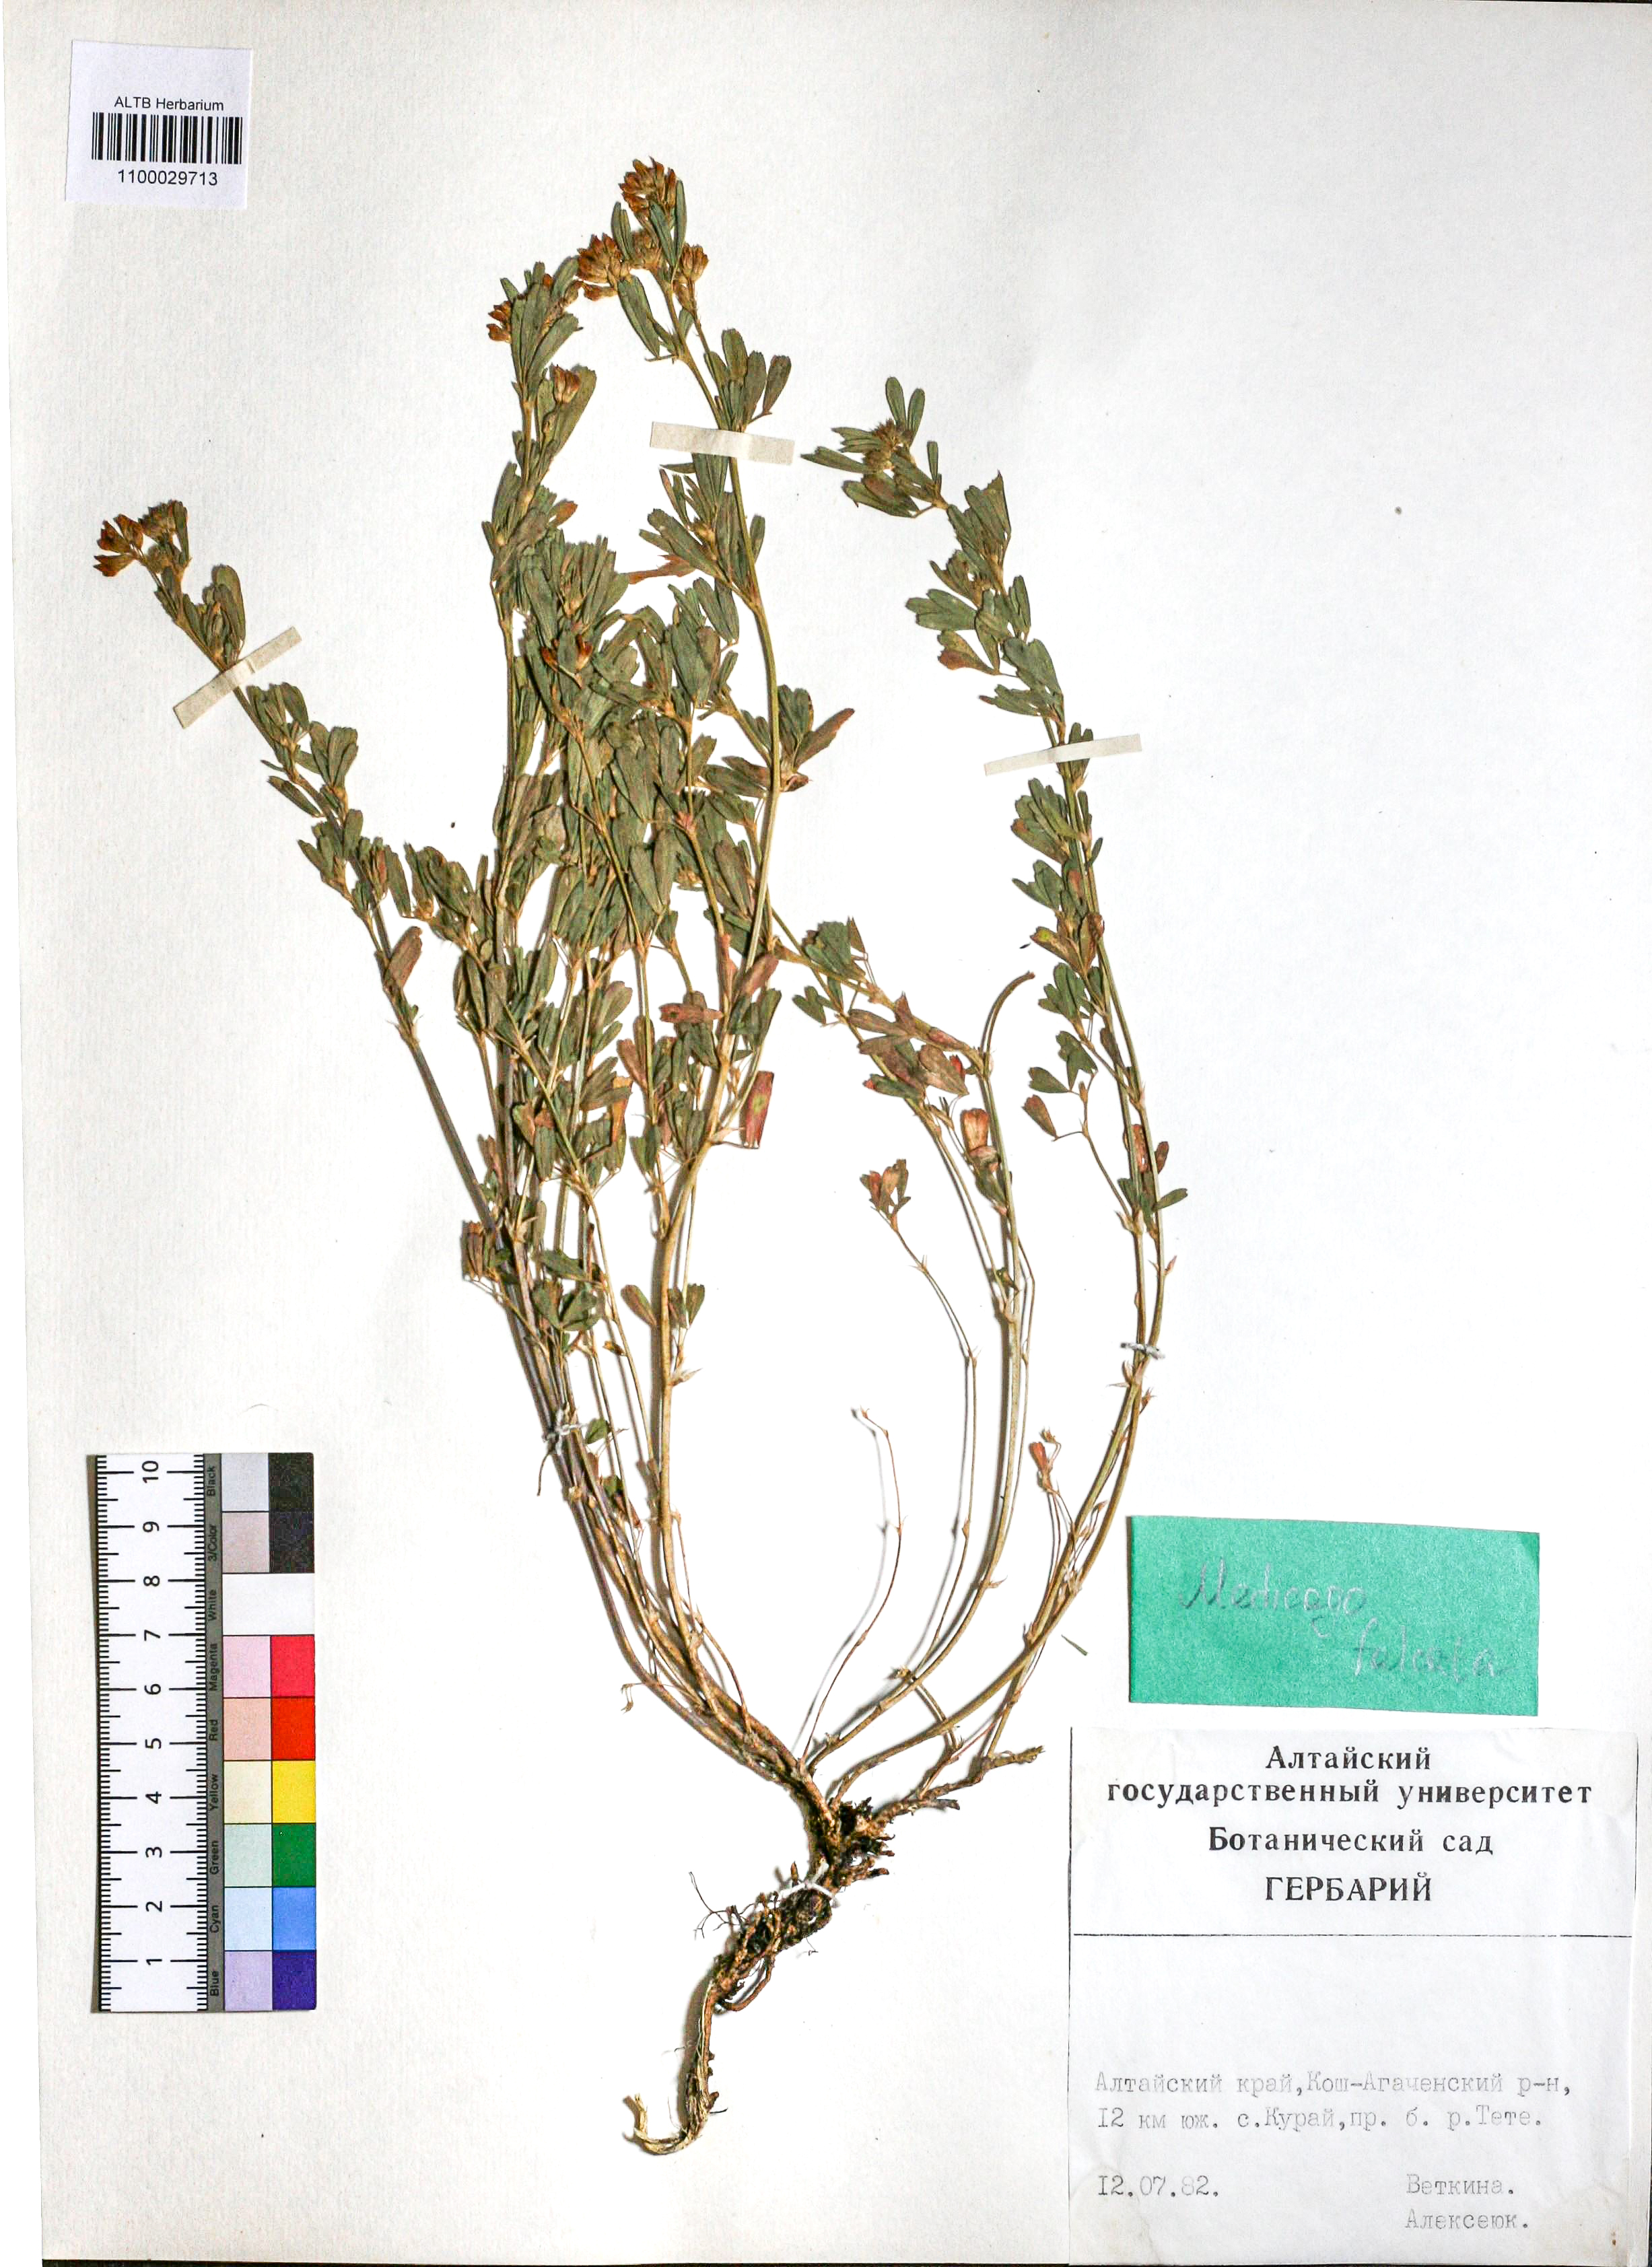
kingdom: Plantae
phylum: Tracheophyta
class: Magnoliopsida
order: Fabales
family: Fabaceae
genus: Medicago
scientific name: Medicago falcata
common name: Sickle medick
